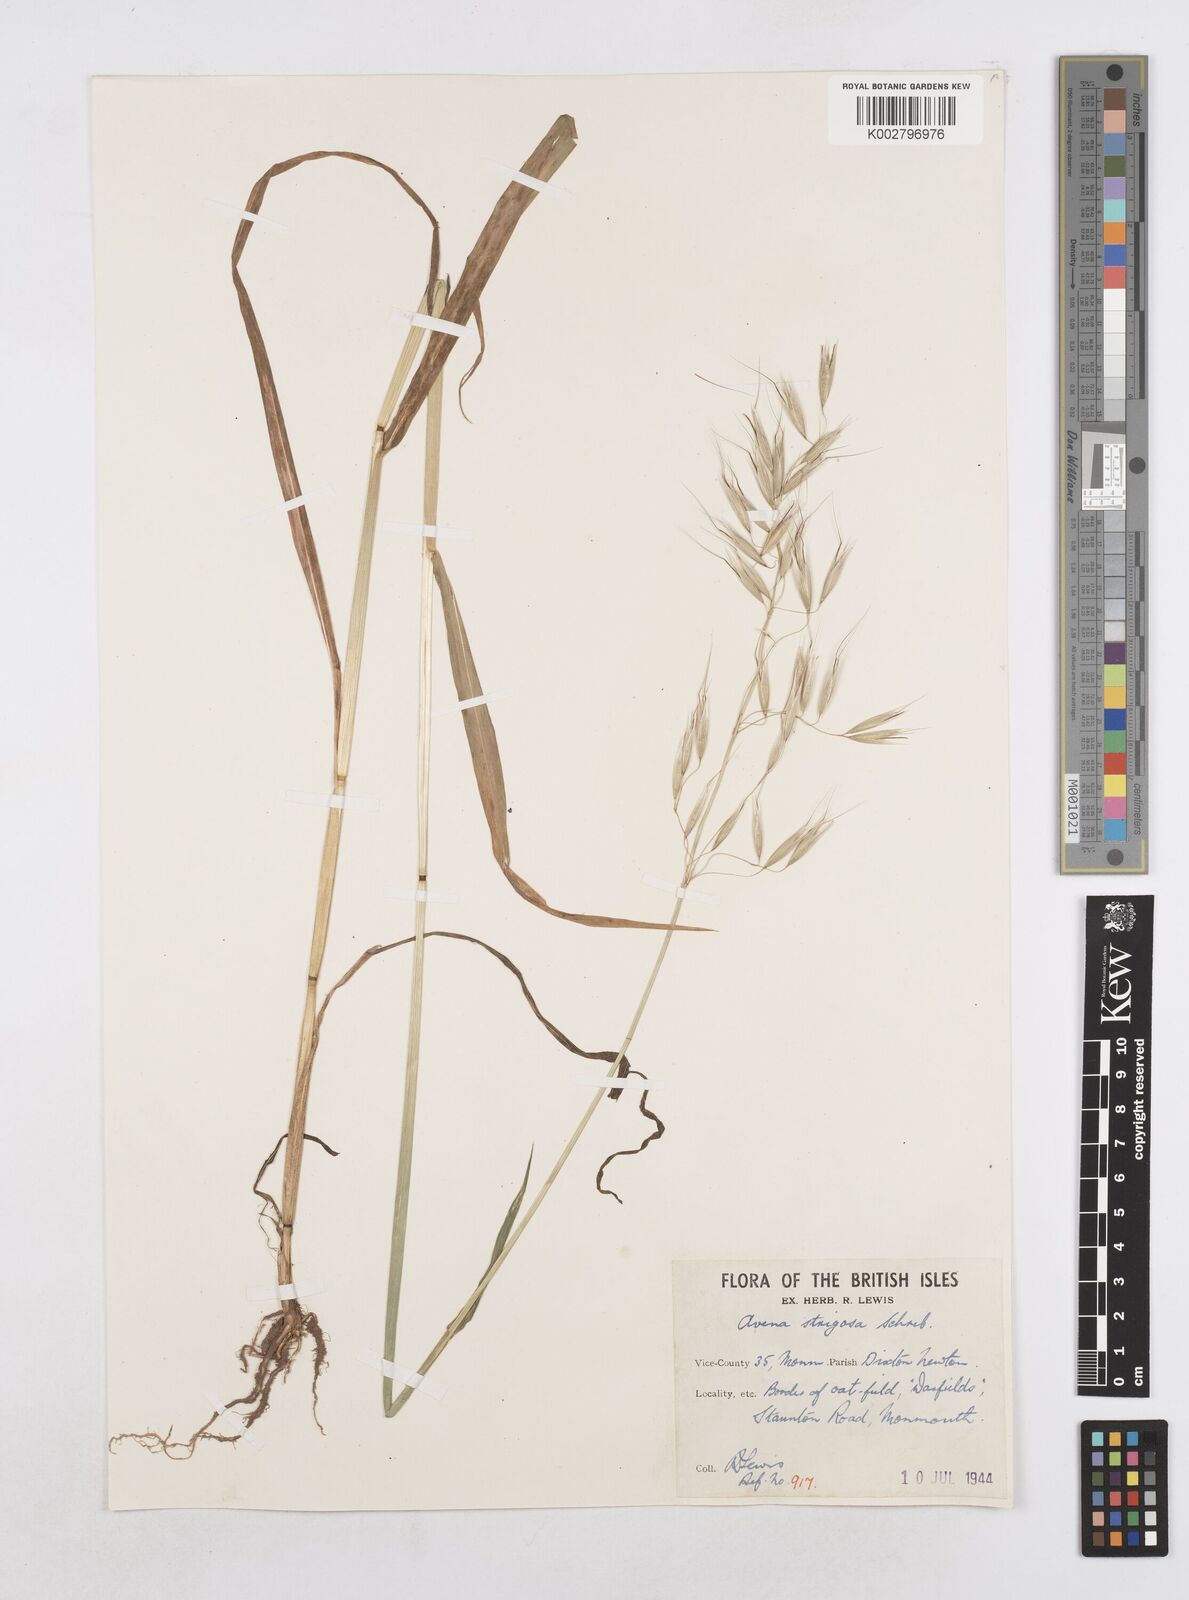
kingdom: Plantae
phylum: Tracheophyta
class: Liliopsida
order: Poales
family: Poaceae
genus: Avena
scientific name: Avena strigosa
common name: Bristle oat
